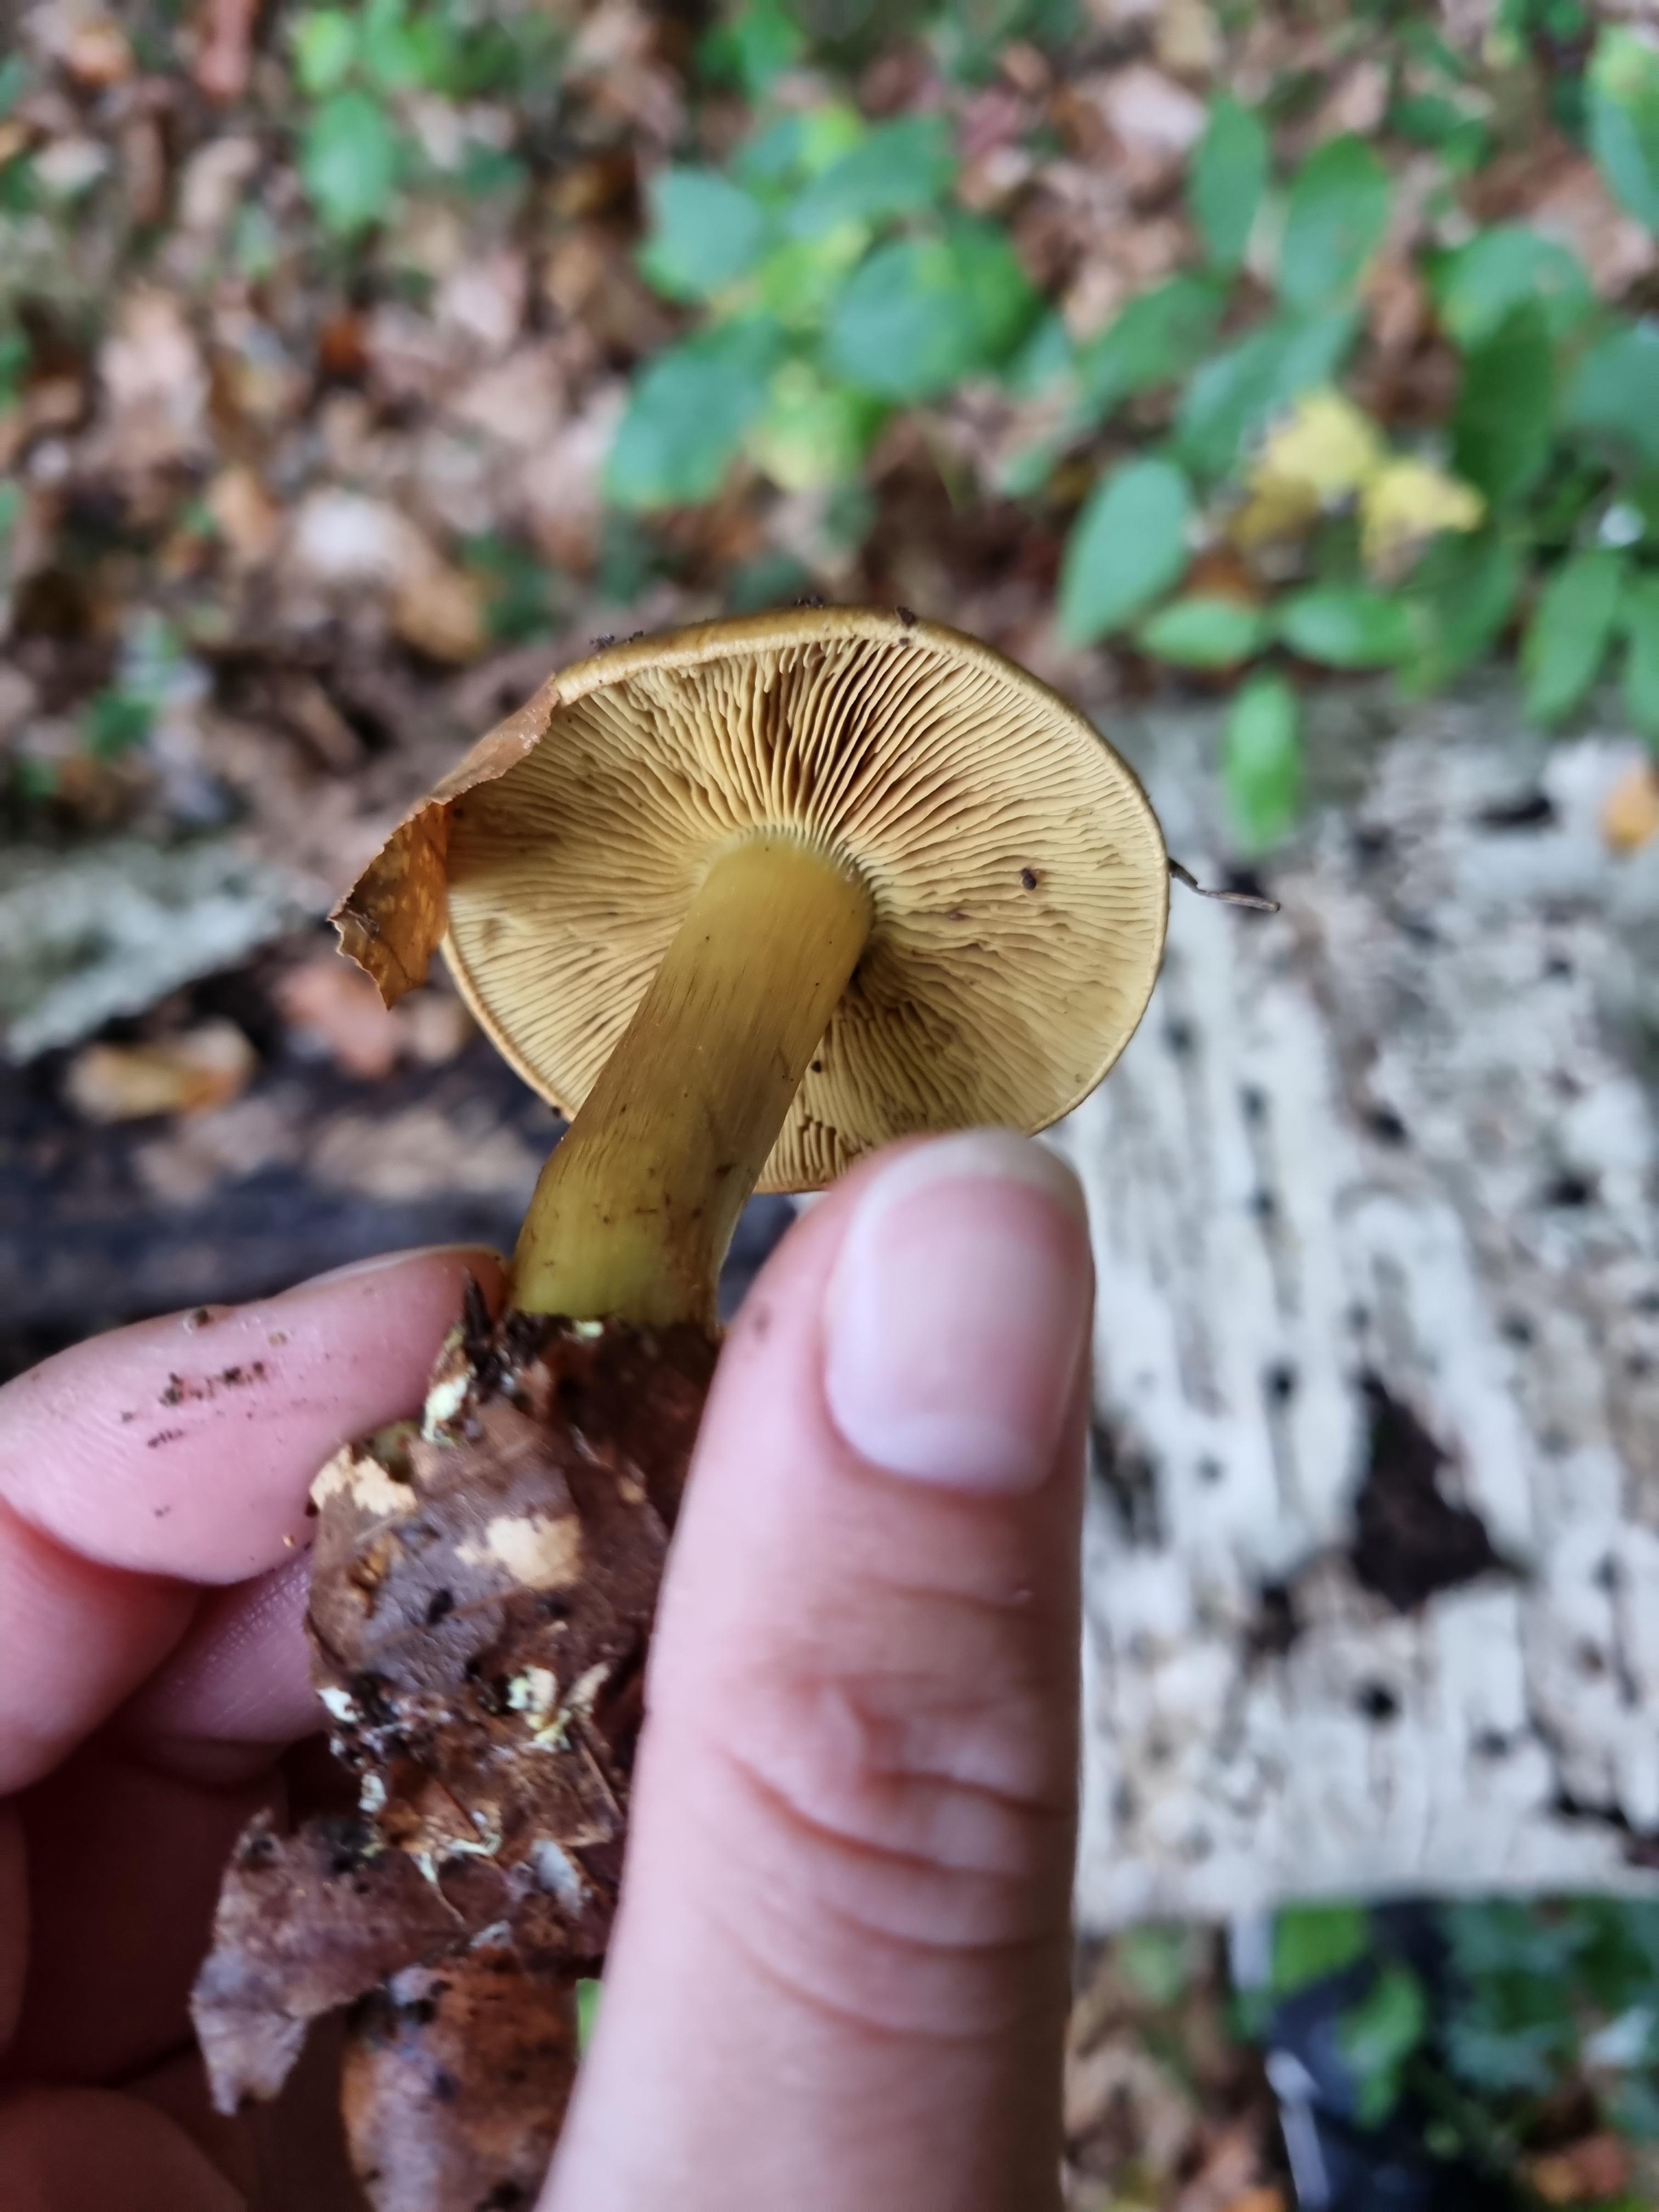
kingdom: Fungi
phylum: Basidiomycota
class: Agaricomycetes
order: Agaricales
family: Cortinariaceae
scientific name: Cortinariaceae
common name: slørhatfamilien
